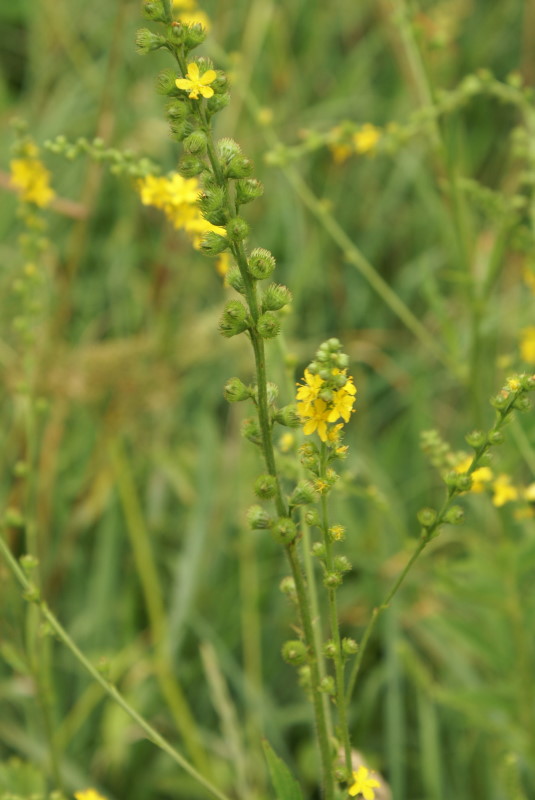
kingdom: Plantae
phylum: Tracheophyta
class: Magnoliopsida
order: Rosales
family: Rosaceae
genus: Agrimonia
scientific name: Agrimonia eupatoria
